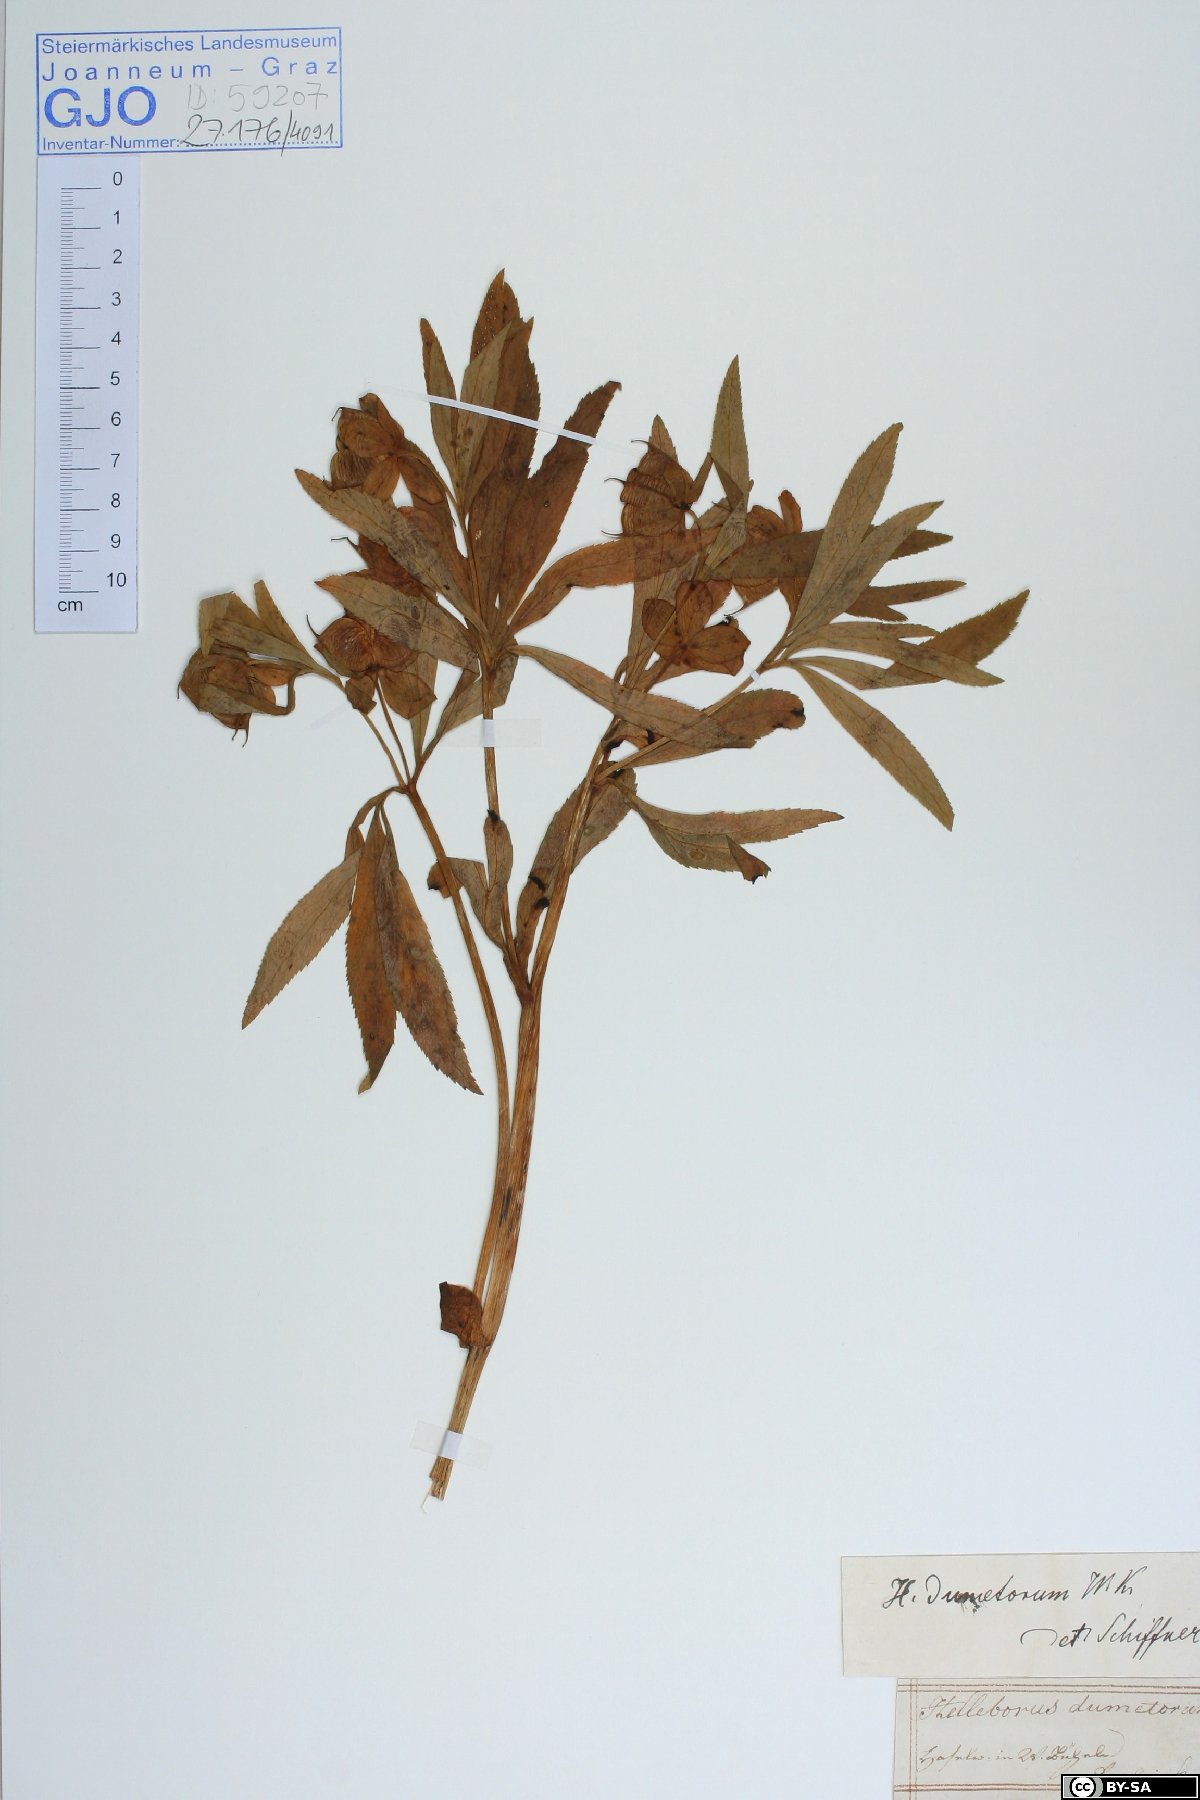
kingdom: Plantae
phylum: Tracheophyta
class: Magnoliopsida
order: Ranunculales
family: Ranunculaceae
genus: Helleborus
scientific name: Helleborus dumetorum
